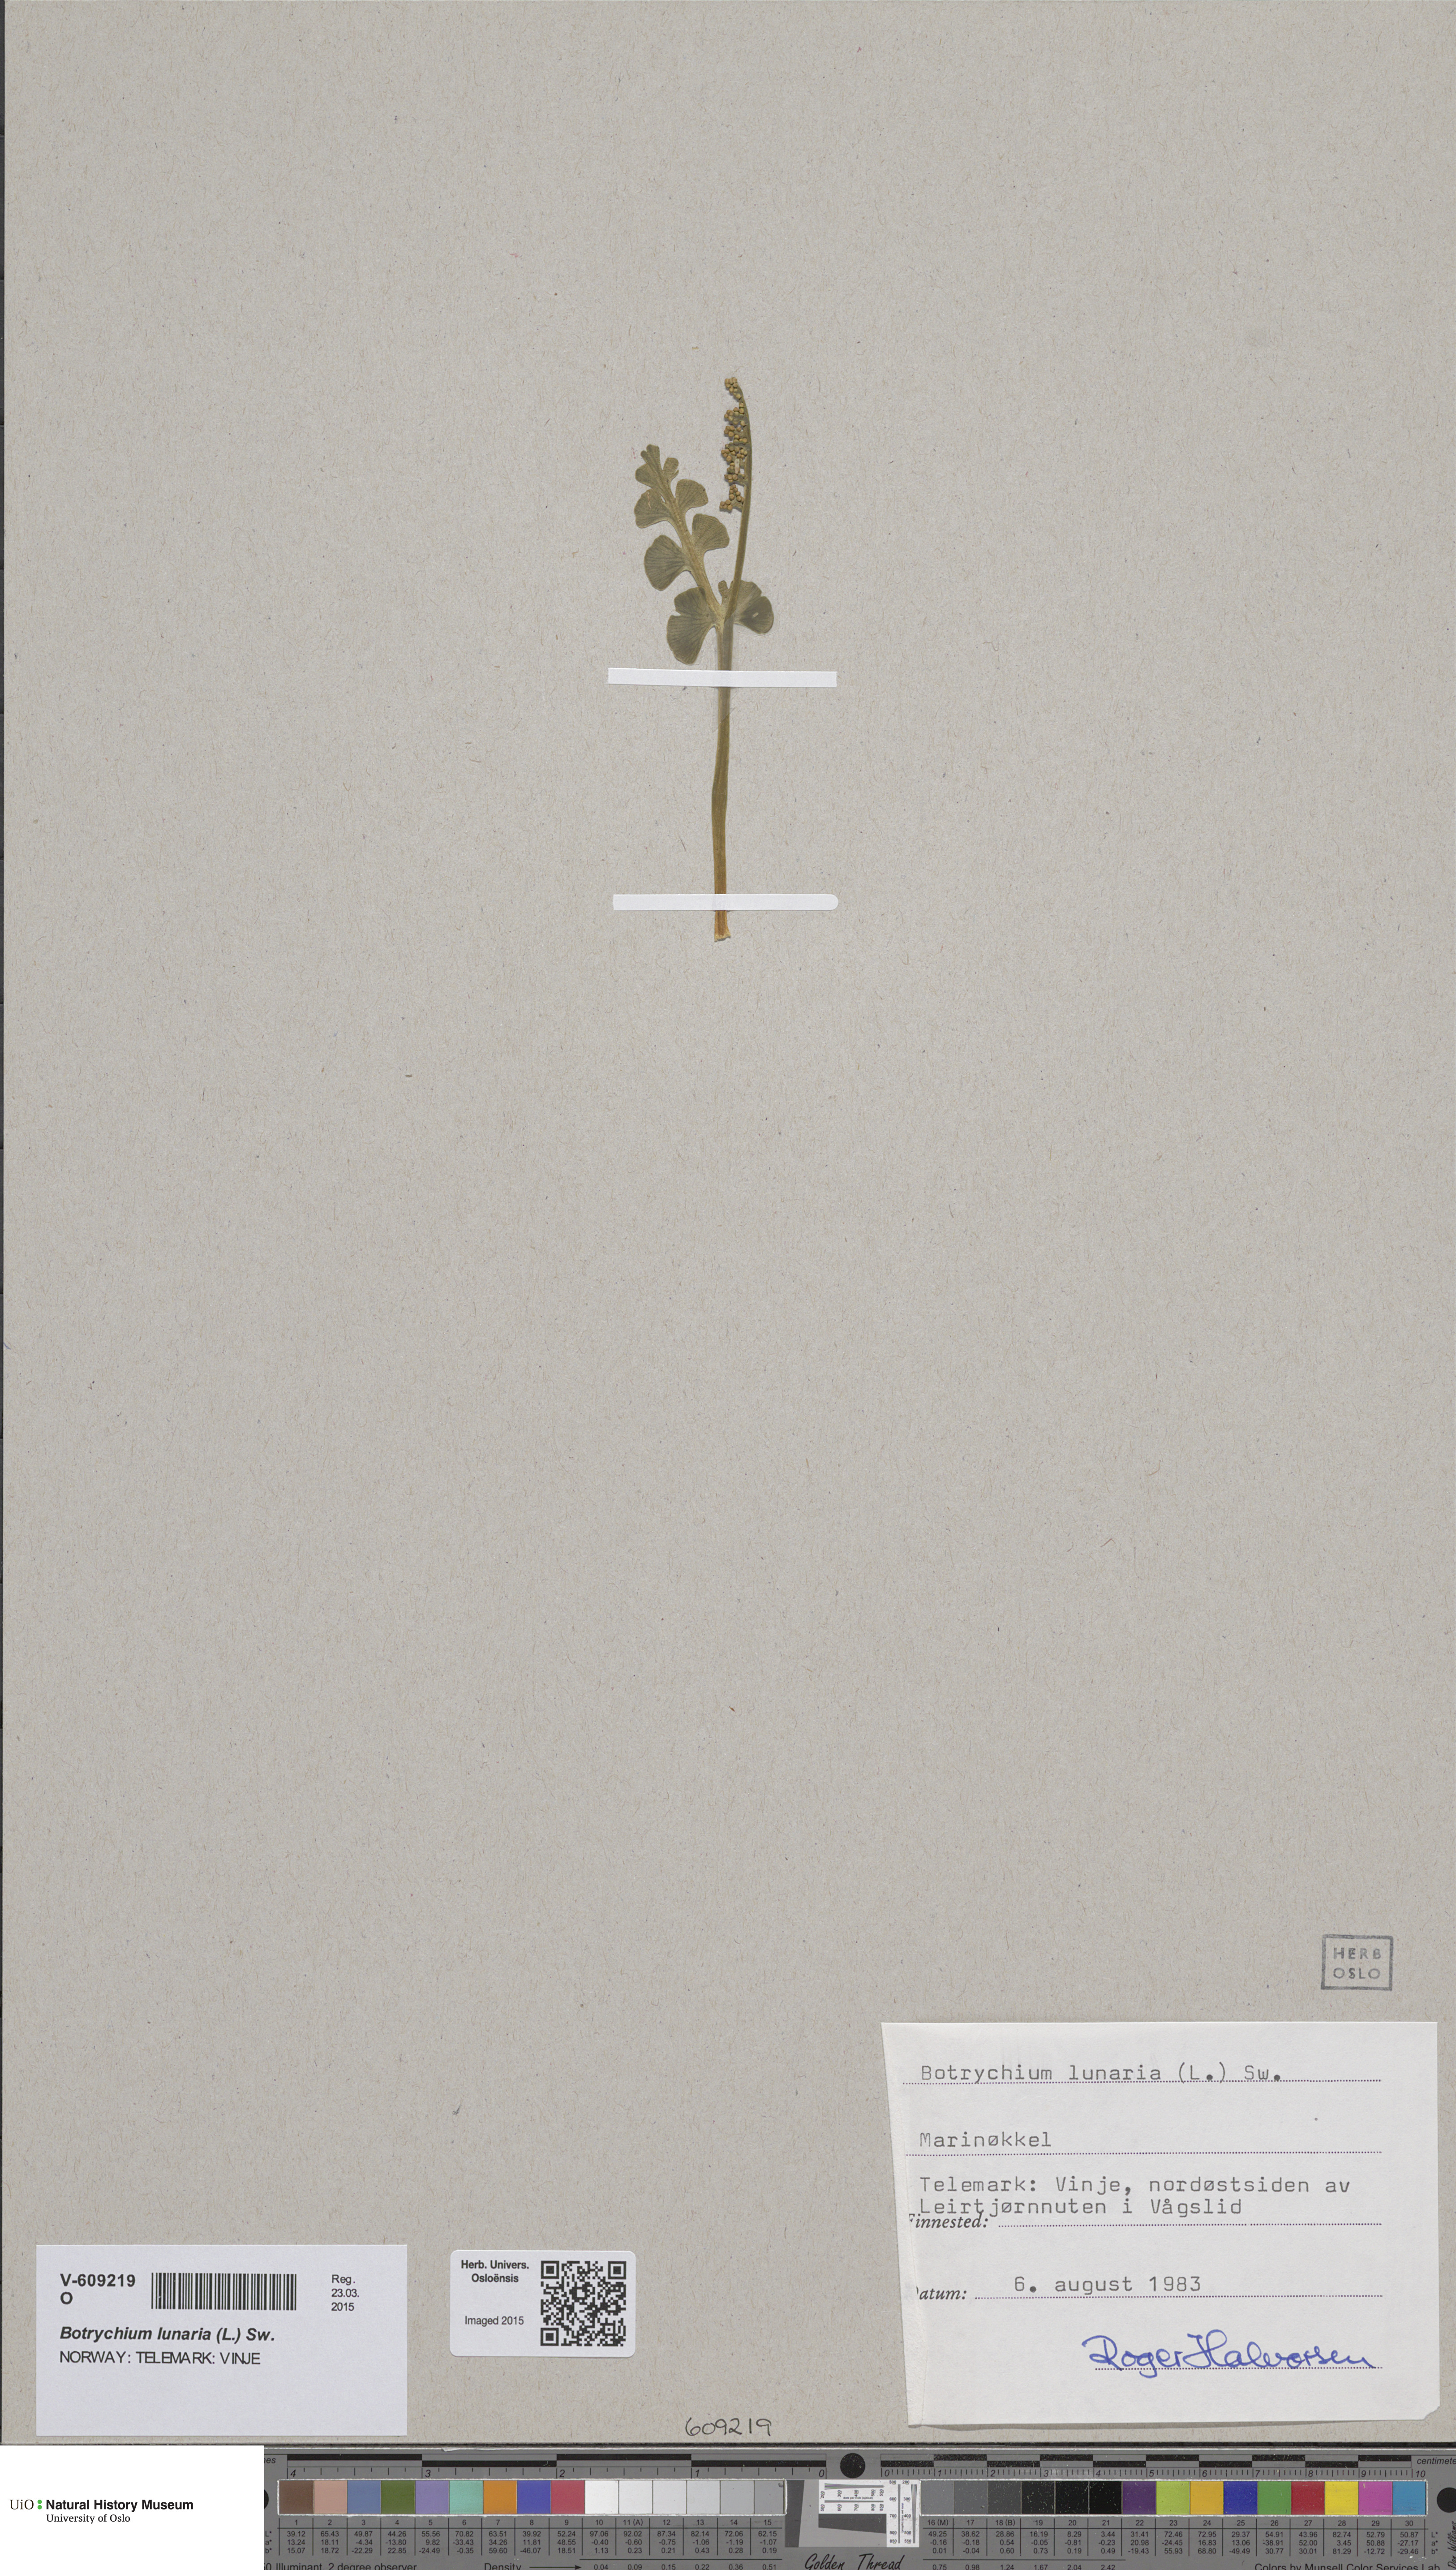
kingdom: Plantae
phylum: Tracheophyta
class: Polypodiopsida
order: Ophioglossales
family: Ophioglossaceae
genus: Botrychium
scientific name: Botrychium lunaria
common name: Moonwort
